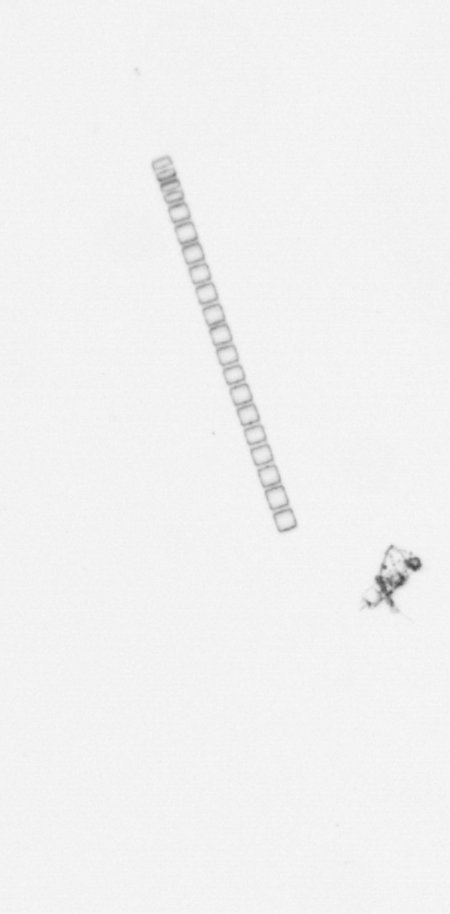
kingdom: Chromista
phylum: Ochrophyta
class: Bacillariophyceae
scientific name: Bacillariophyceae
